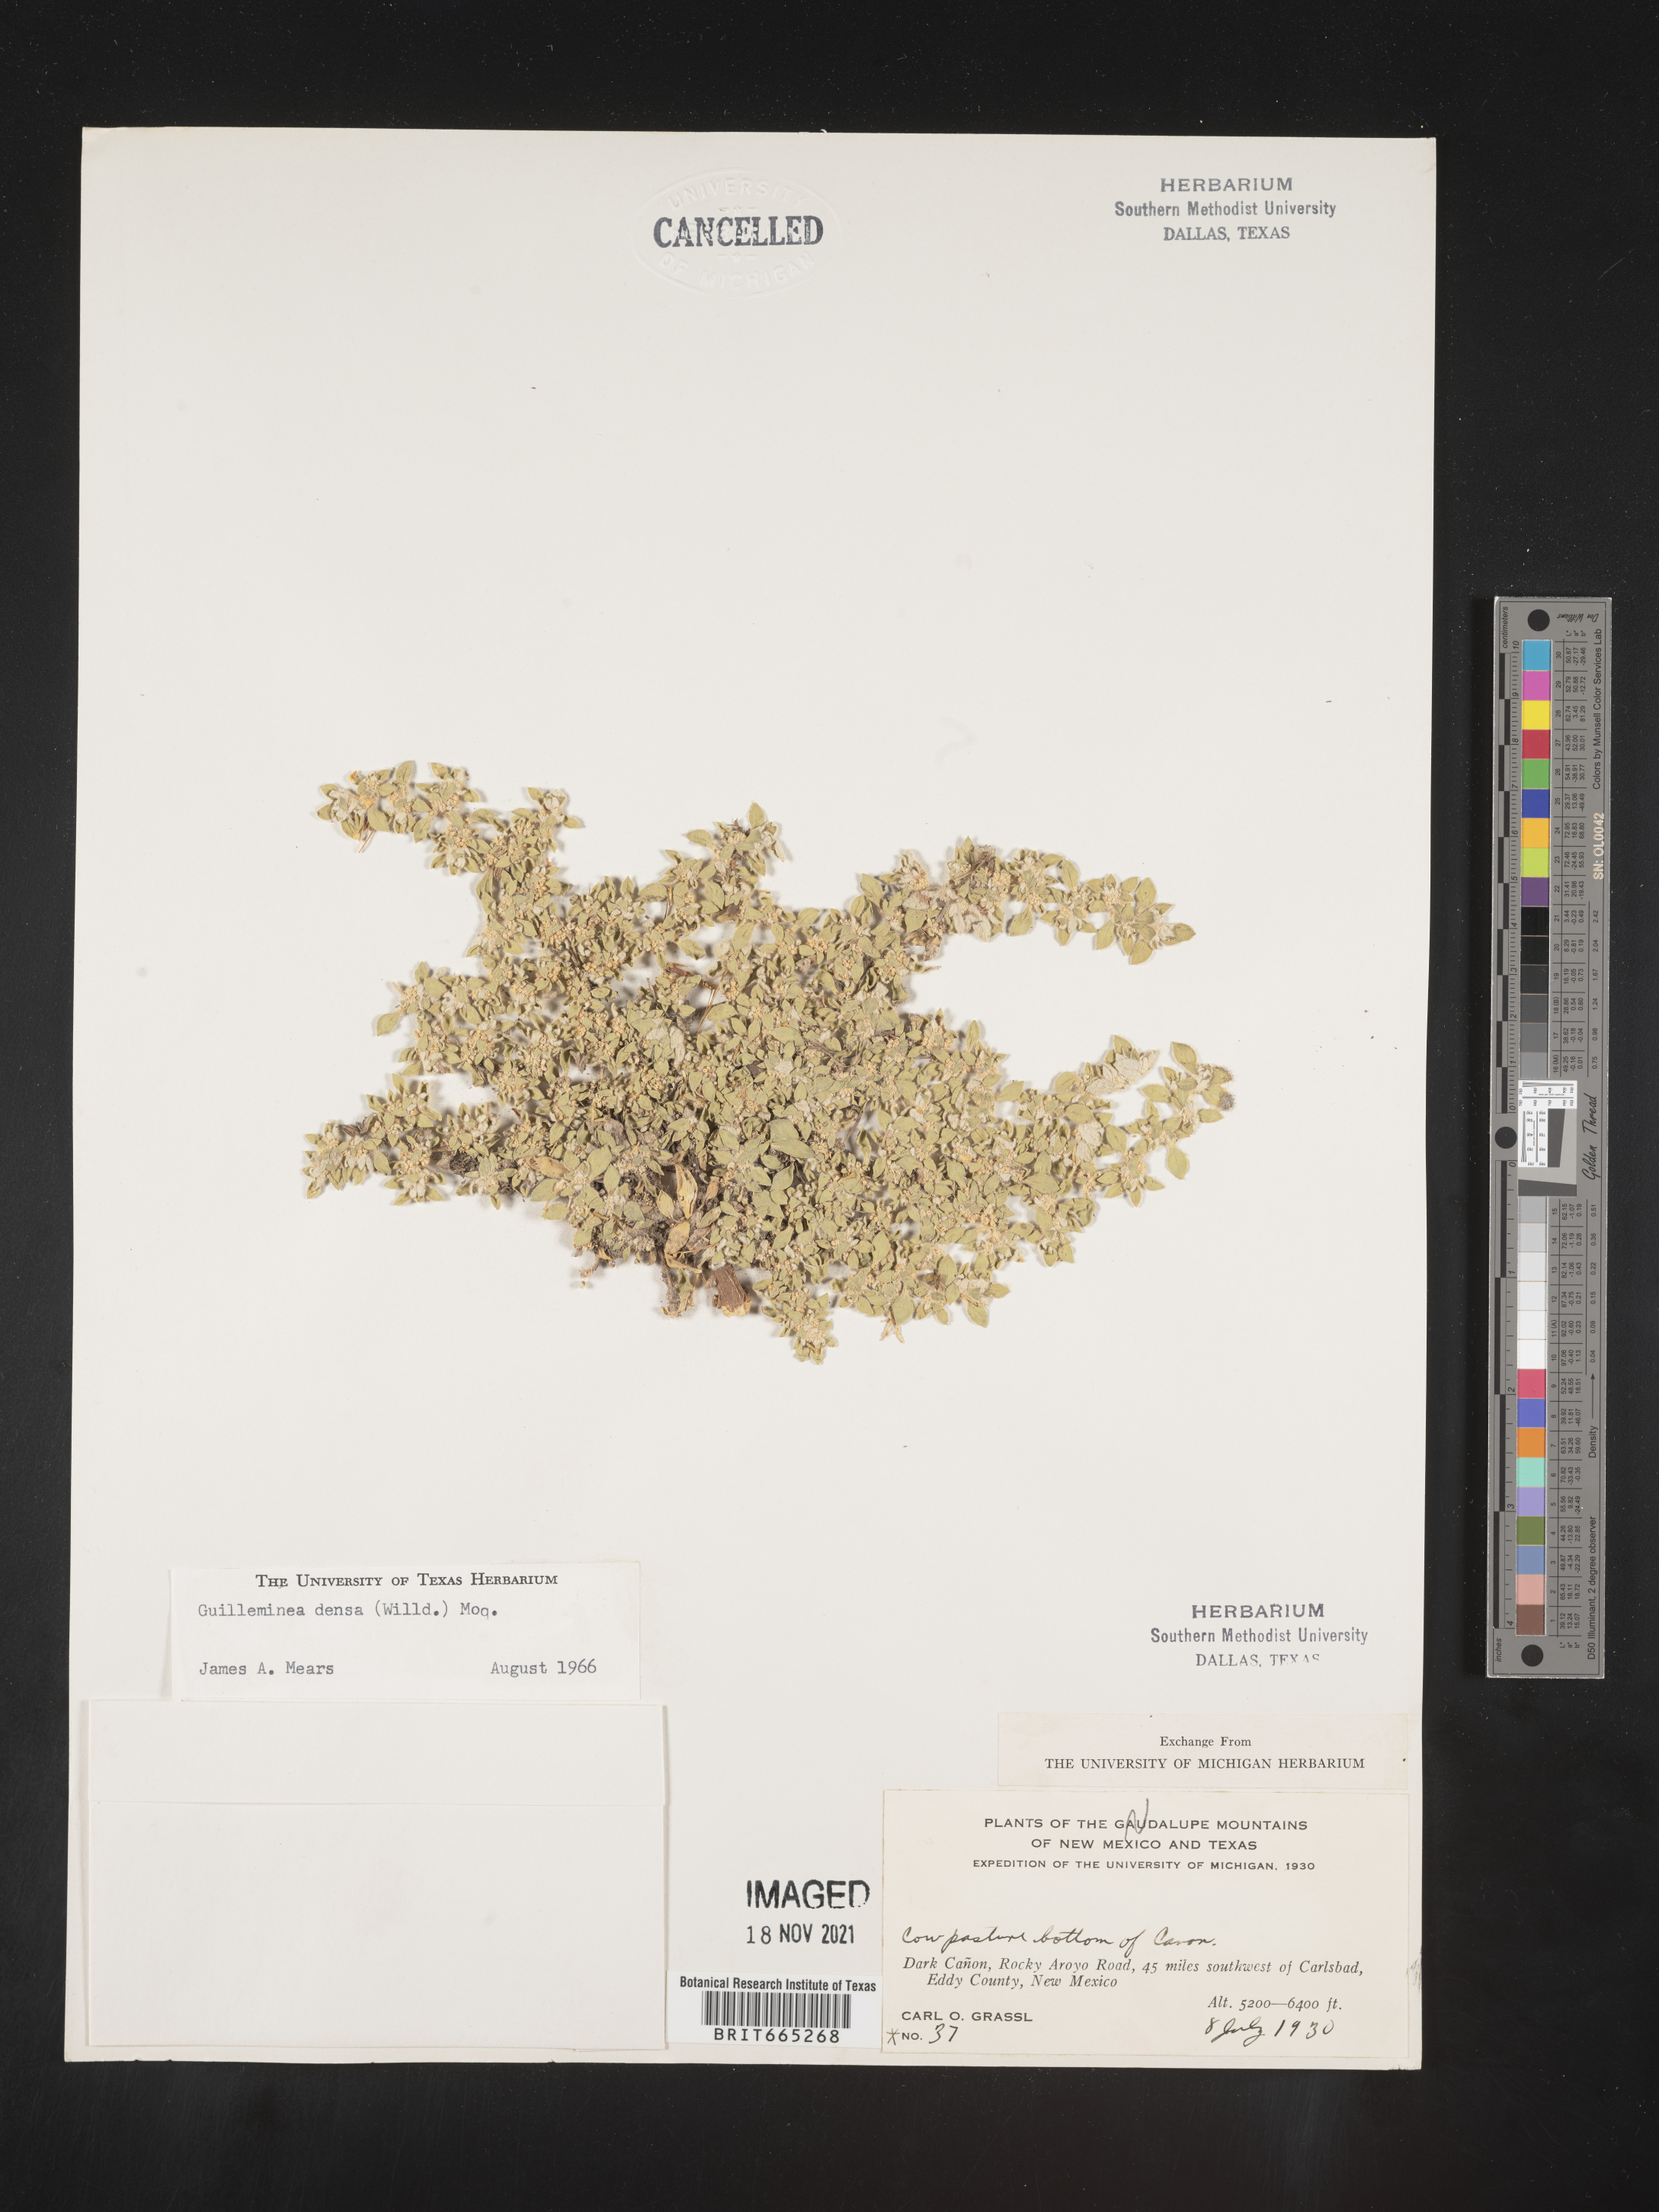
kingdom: Plantae
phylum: Tracheophyta
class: Magnoliopsida
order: Caryophyllales
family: Amaranthaceae
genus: Guilleminea
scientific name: Guilleminea densa
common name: Small matweed
